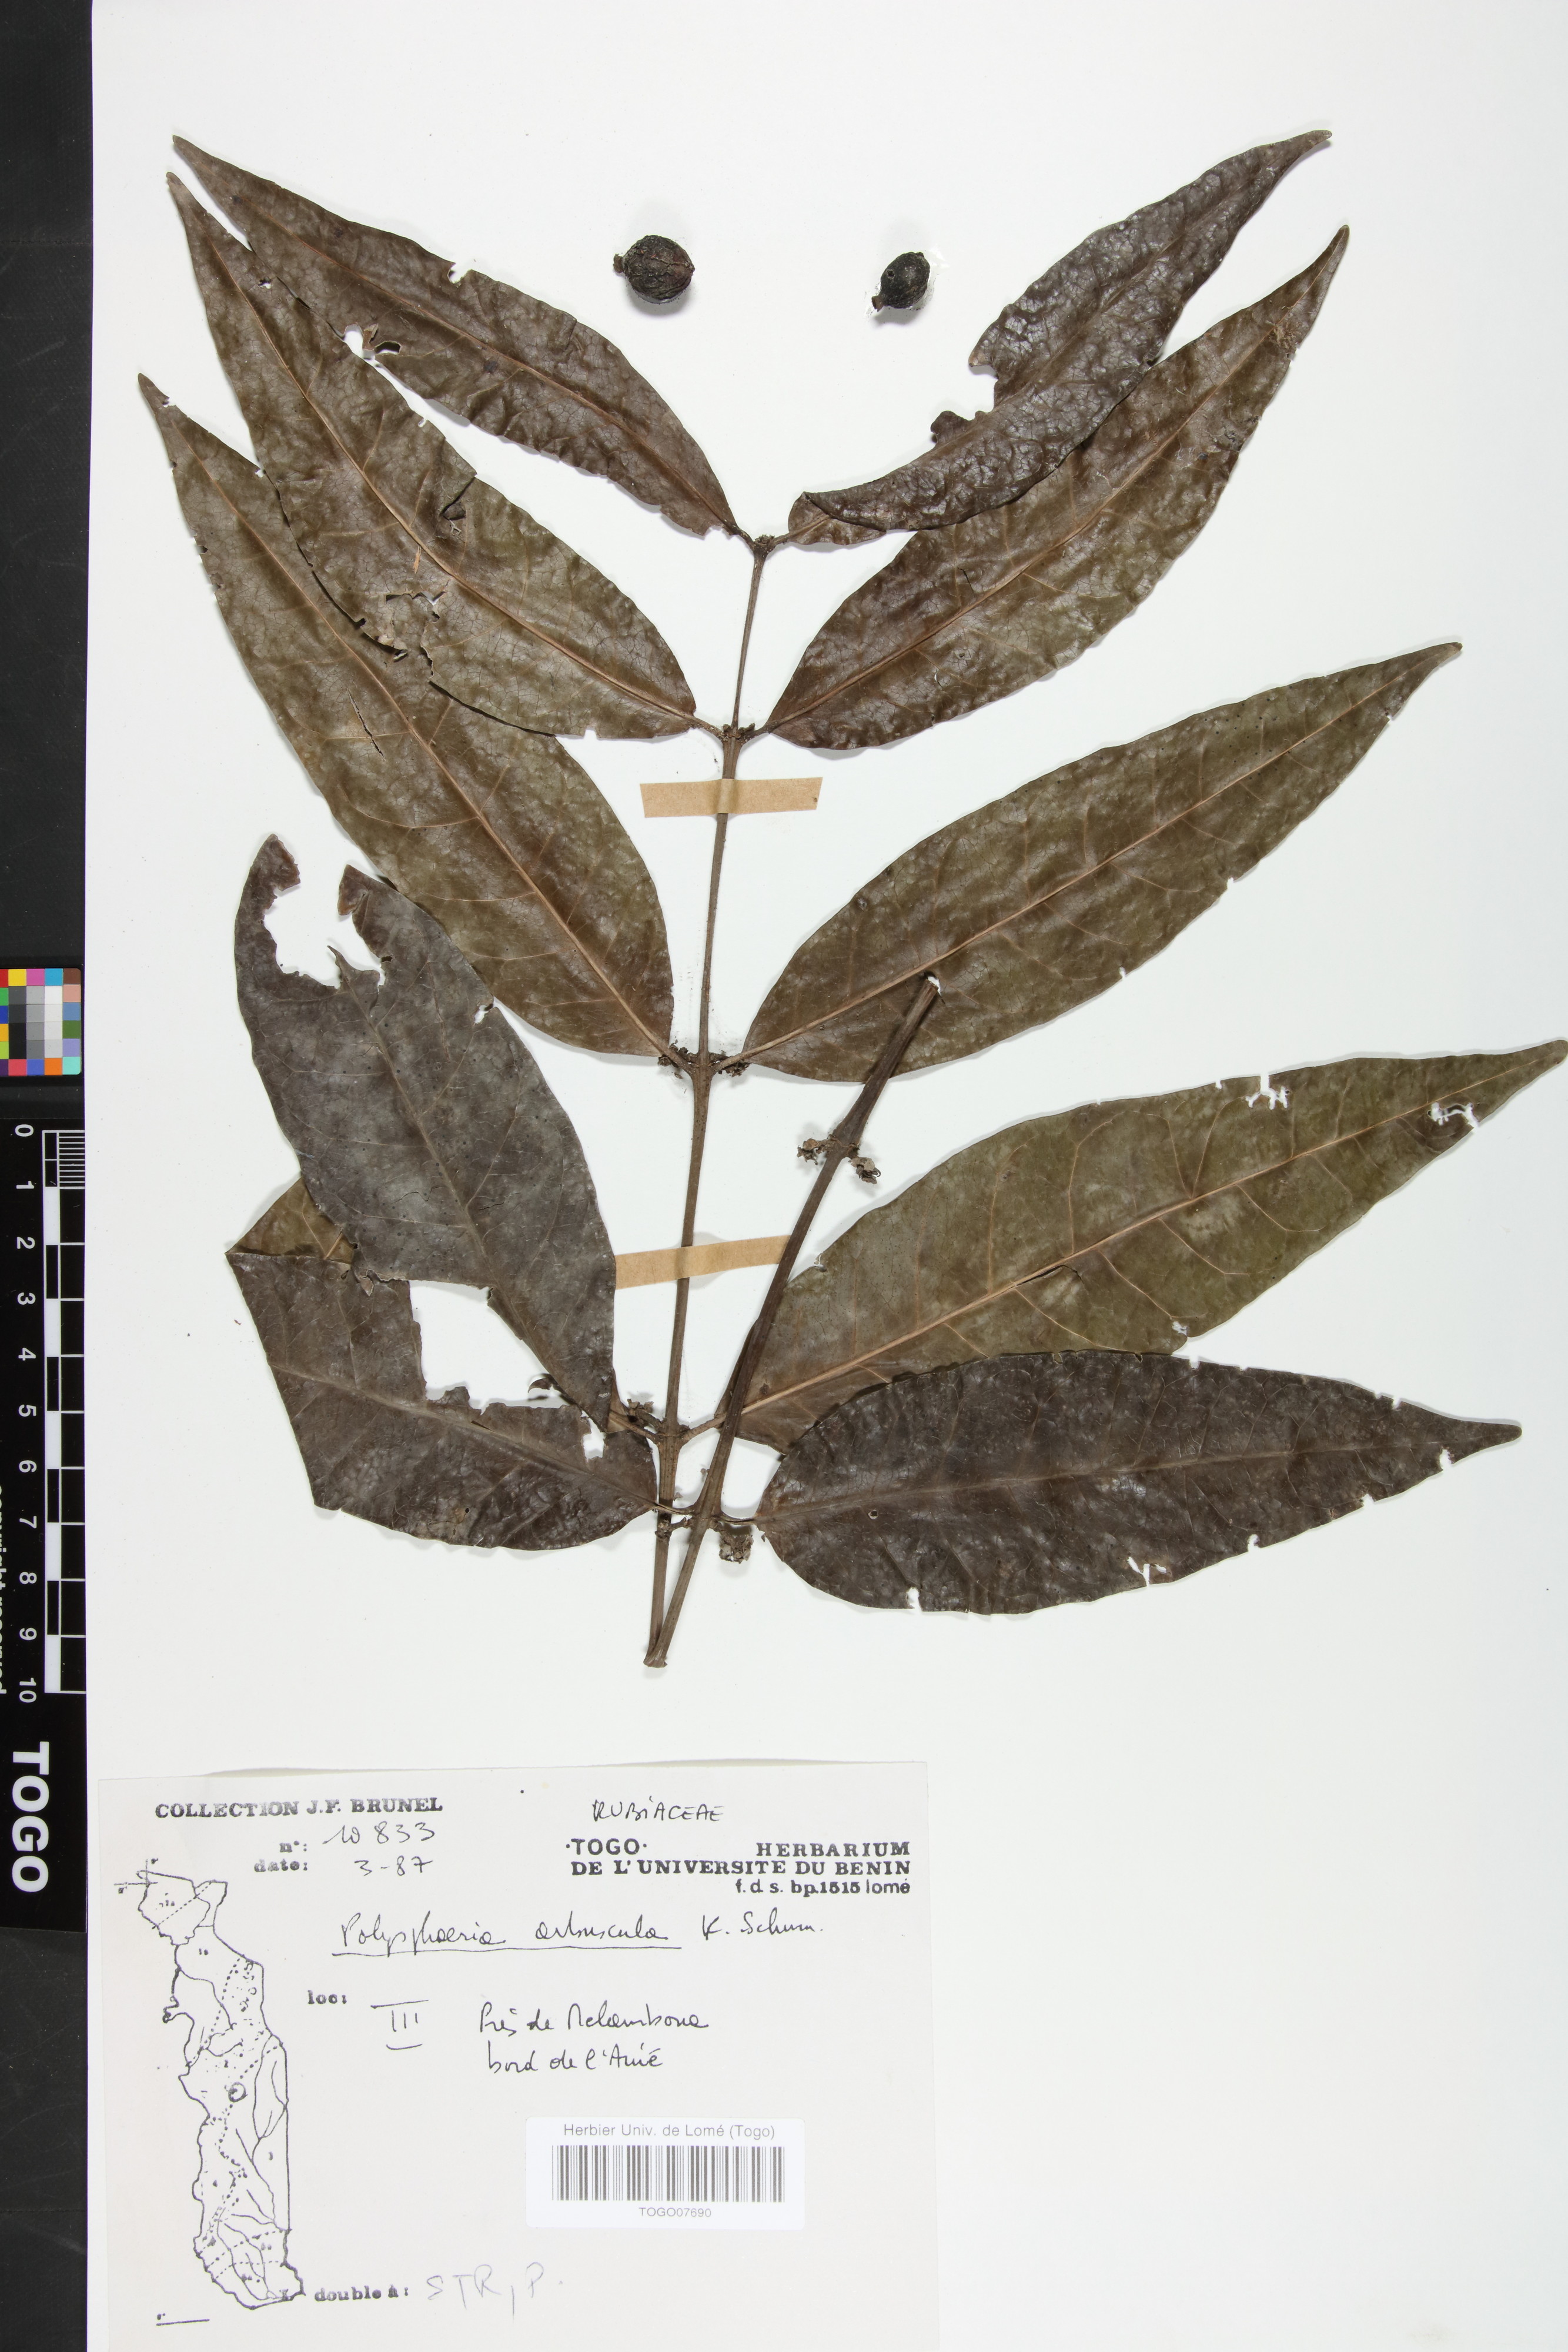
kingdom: Plantae
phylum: Tracheophyta
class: Magnoliopsida
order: Gentianales
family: Rubiaceae
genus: Polysphaeria
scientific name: Polysphaeria arbuscula
